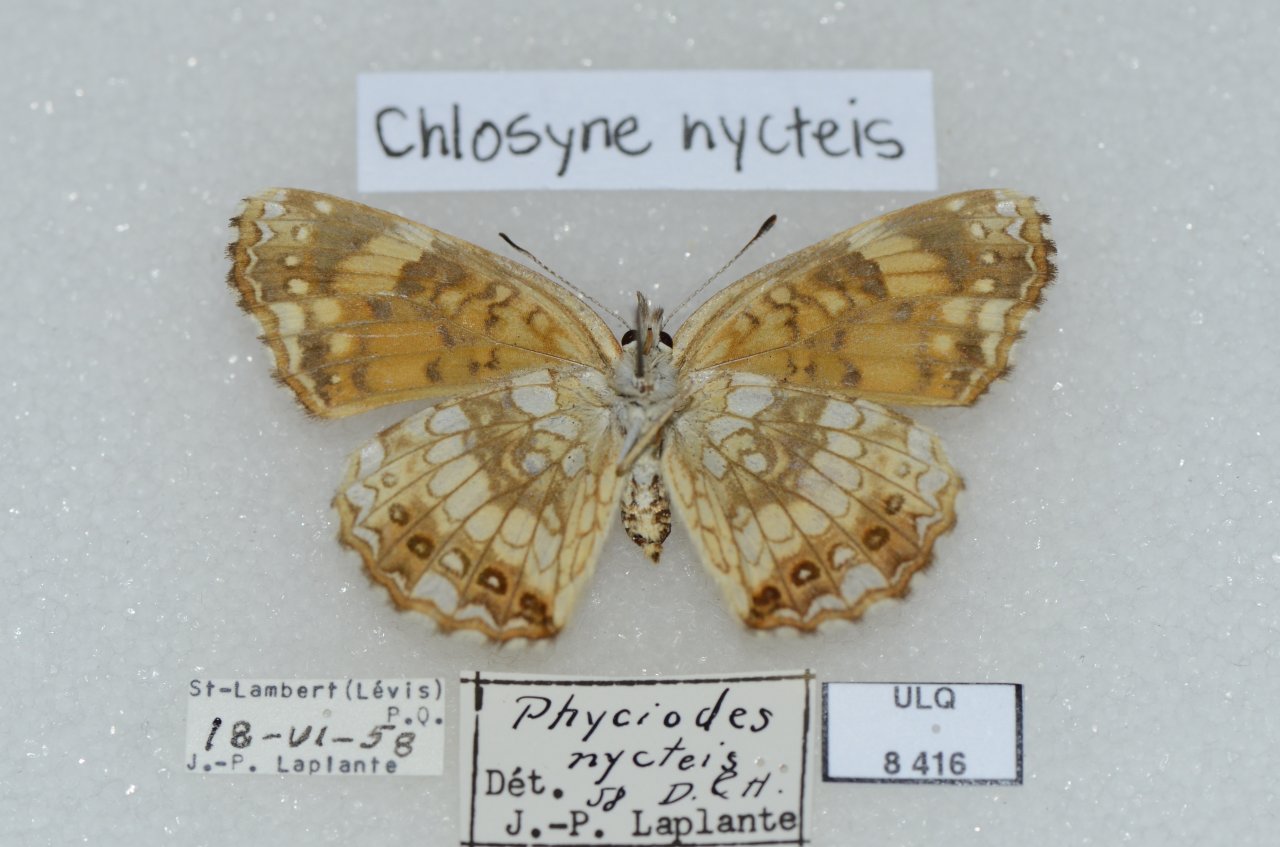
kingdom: Animalia
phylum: Arthropoda
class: Insecta
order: Lepidoptera
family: Nymphalidae
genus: Chlosyne
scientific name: Chlosyne nycteis
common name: Silvery Checkerspot
